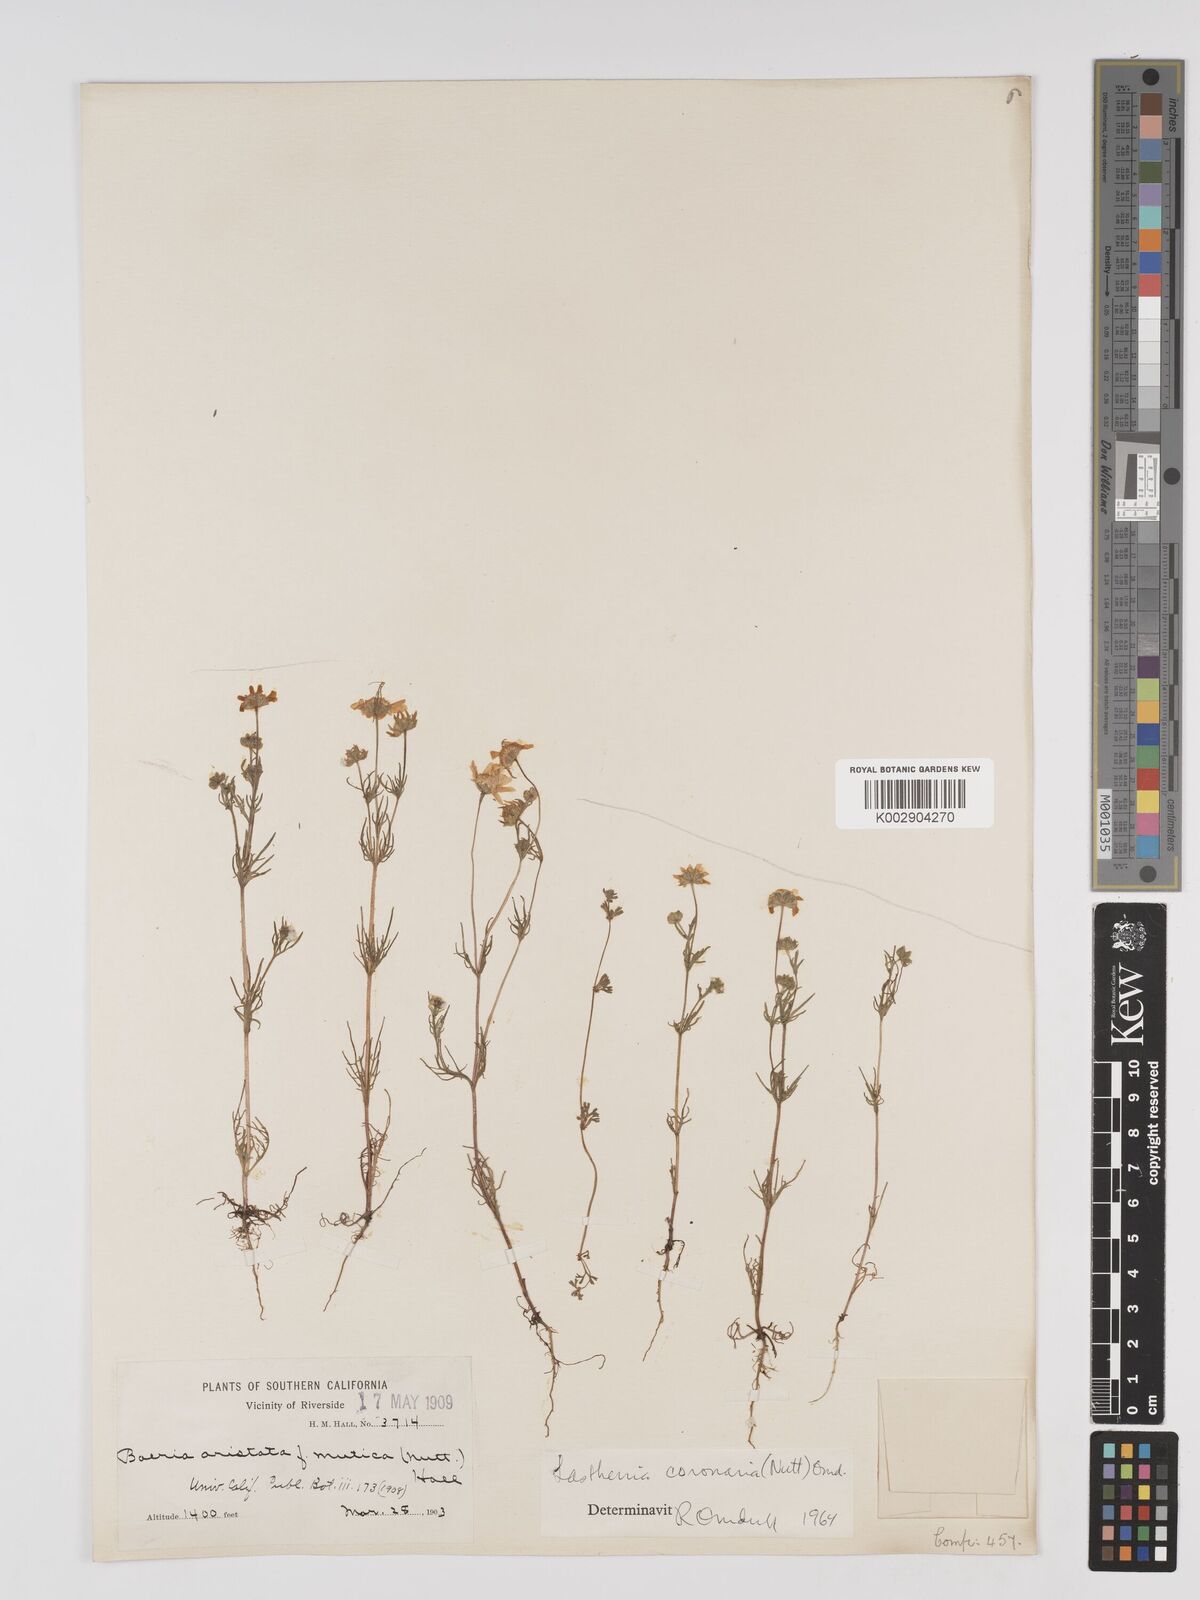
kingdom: Plantae
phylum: Tracheophyta
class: Magnoliopsida
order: Asterales
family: Asteraceae
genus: Lasthenia
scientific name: Lasthenia coronaria
